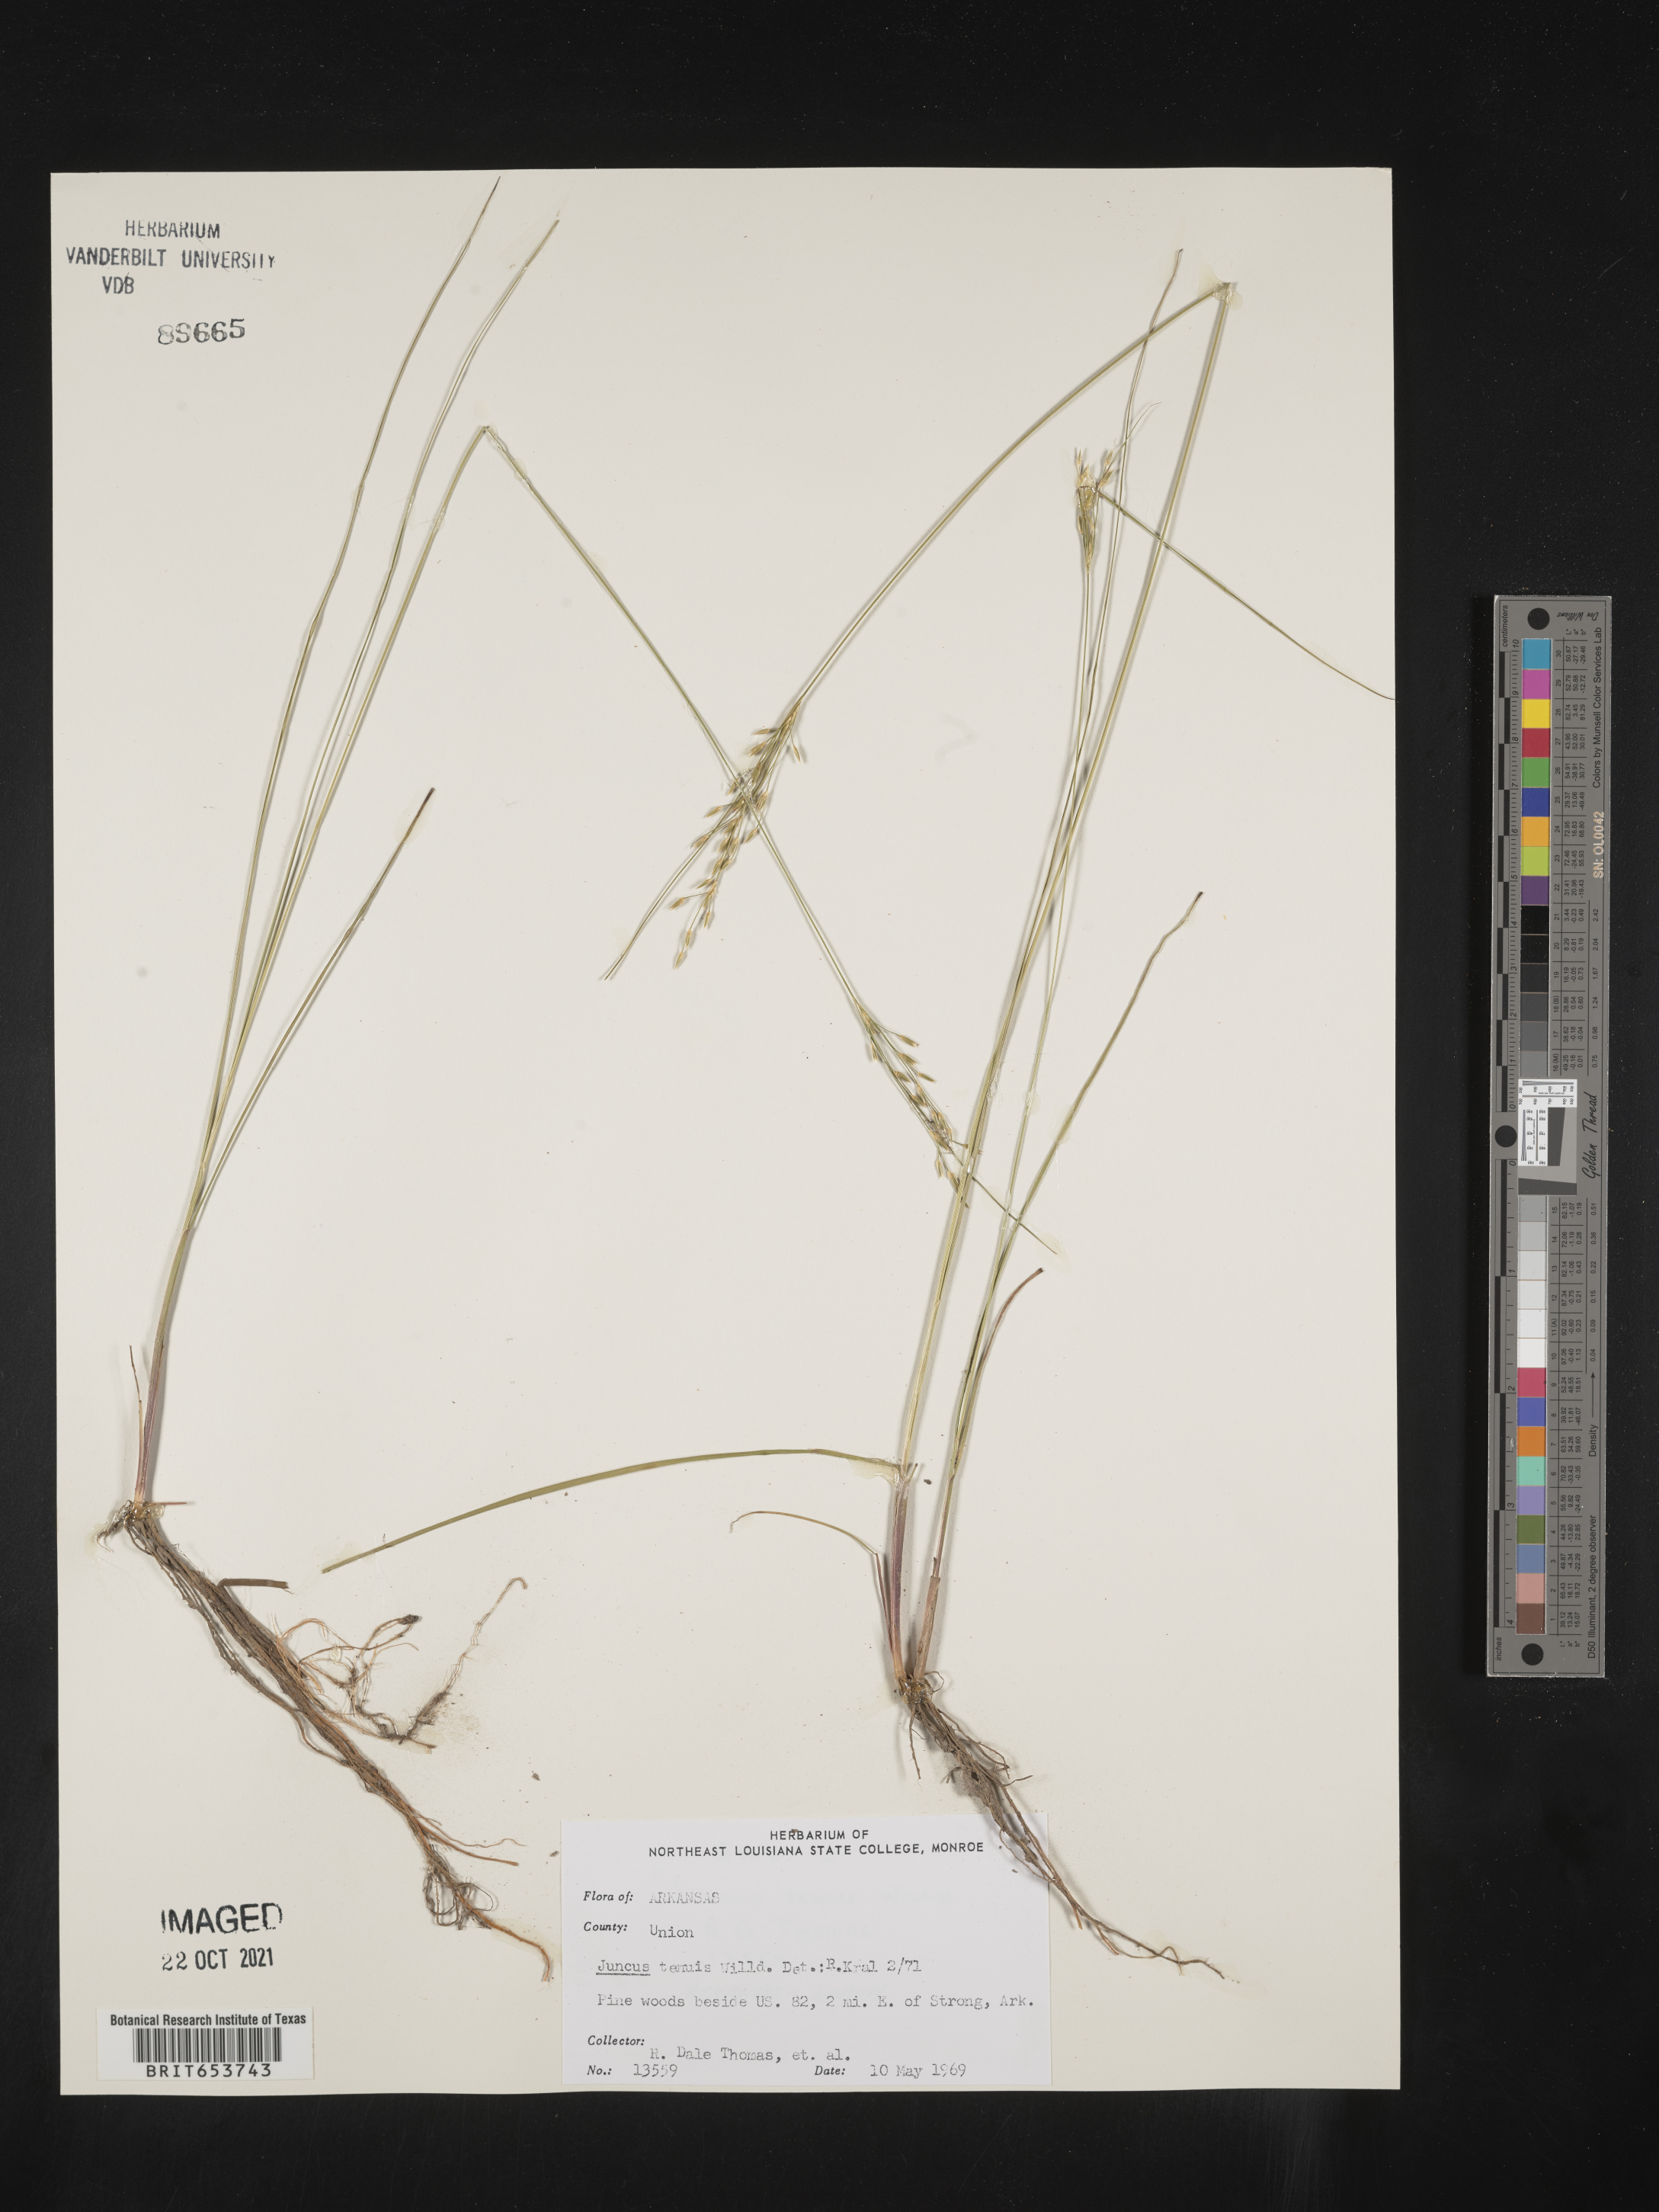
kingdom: Plantae
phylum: Tracheophyta
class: Liliopsida
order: Poales
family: Juncaceae
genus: Juncus
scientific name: Juncus tenuis
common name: Slender rush
